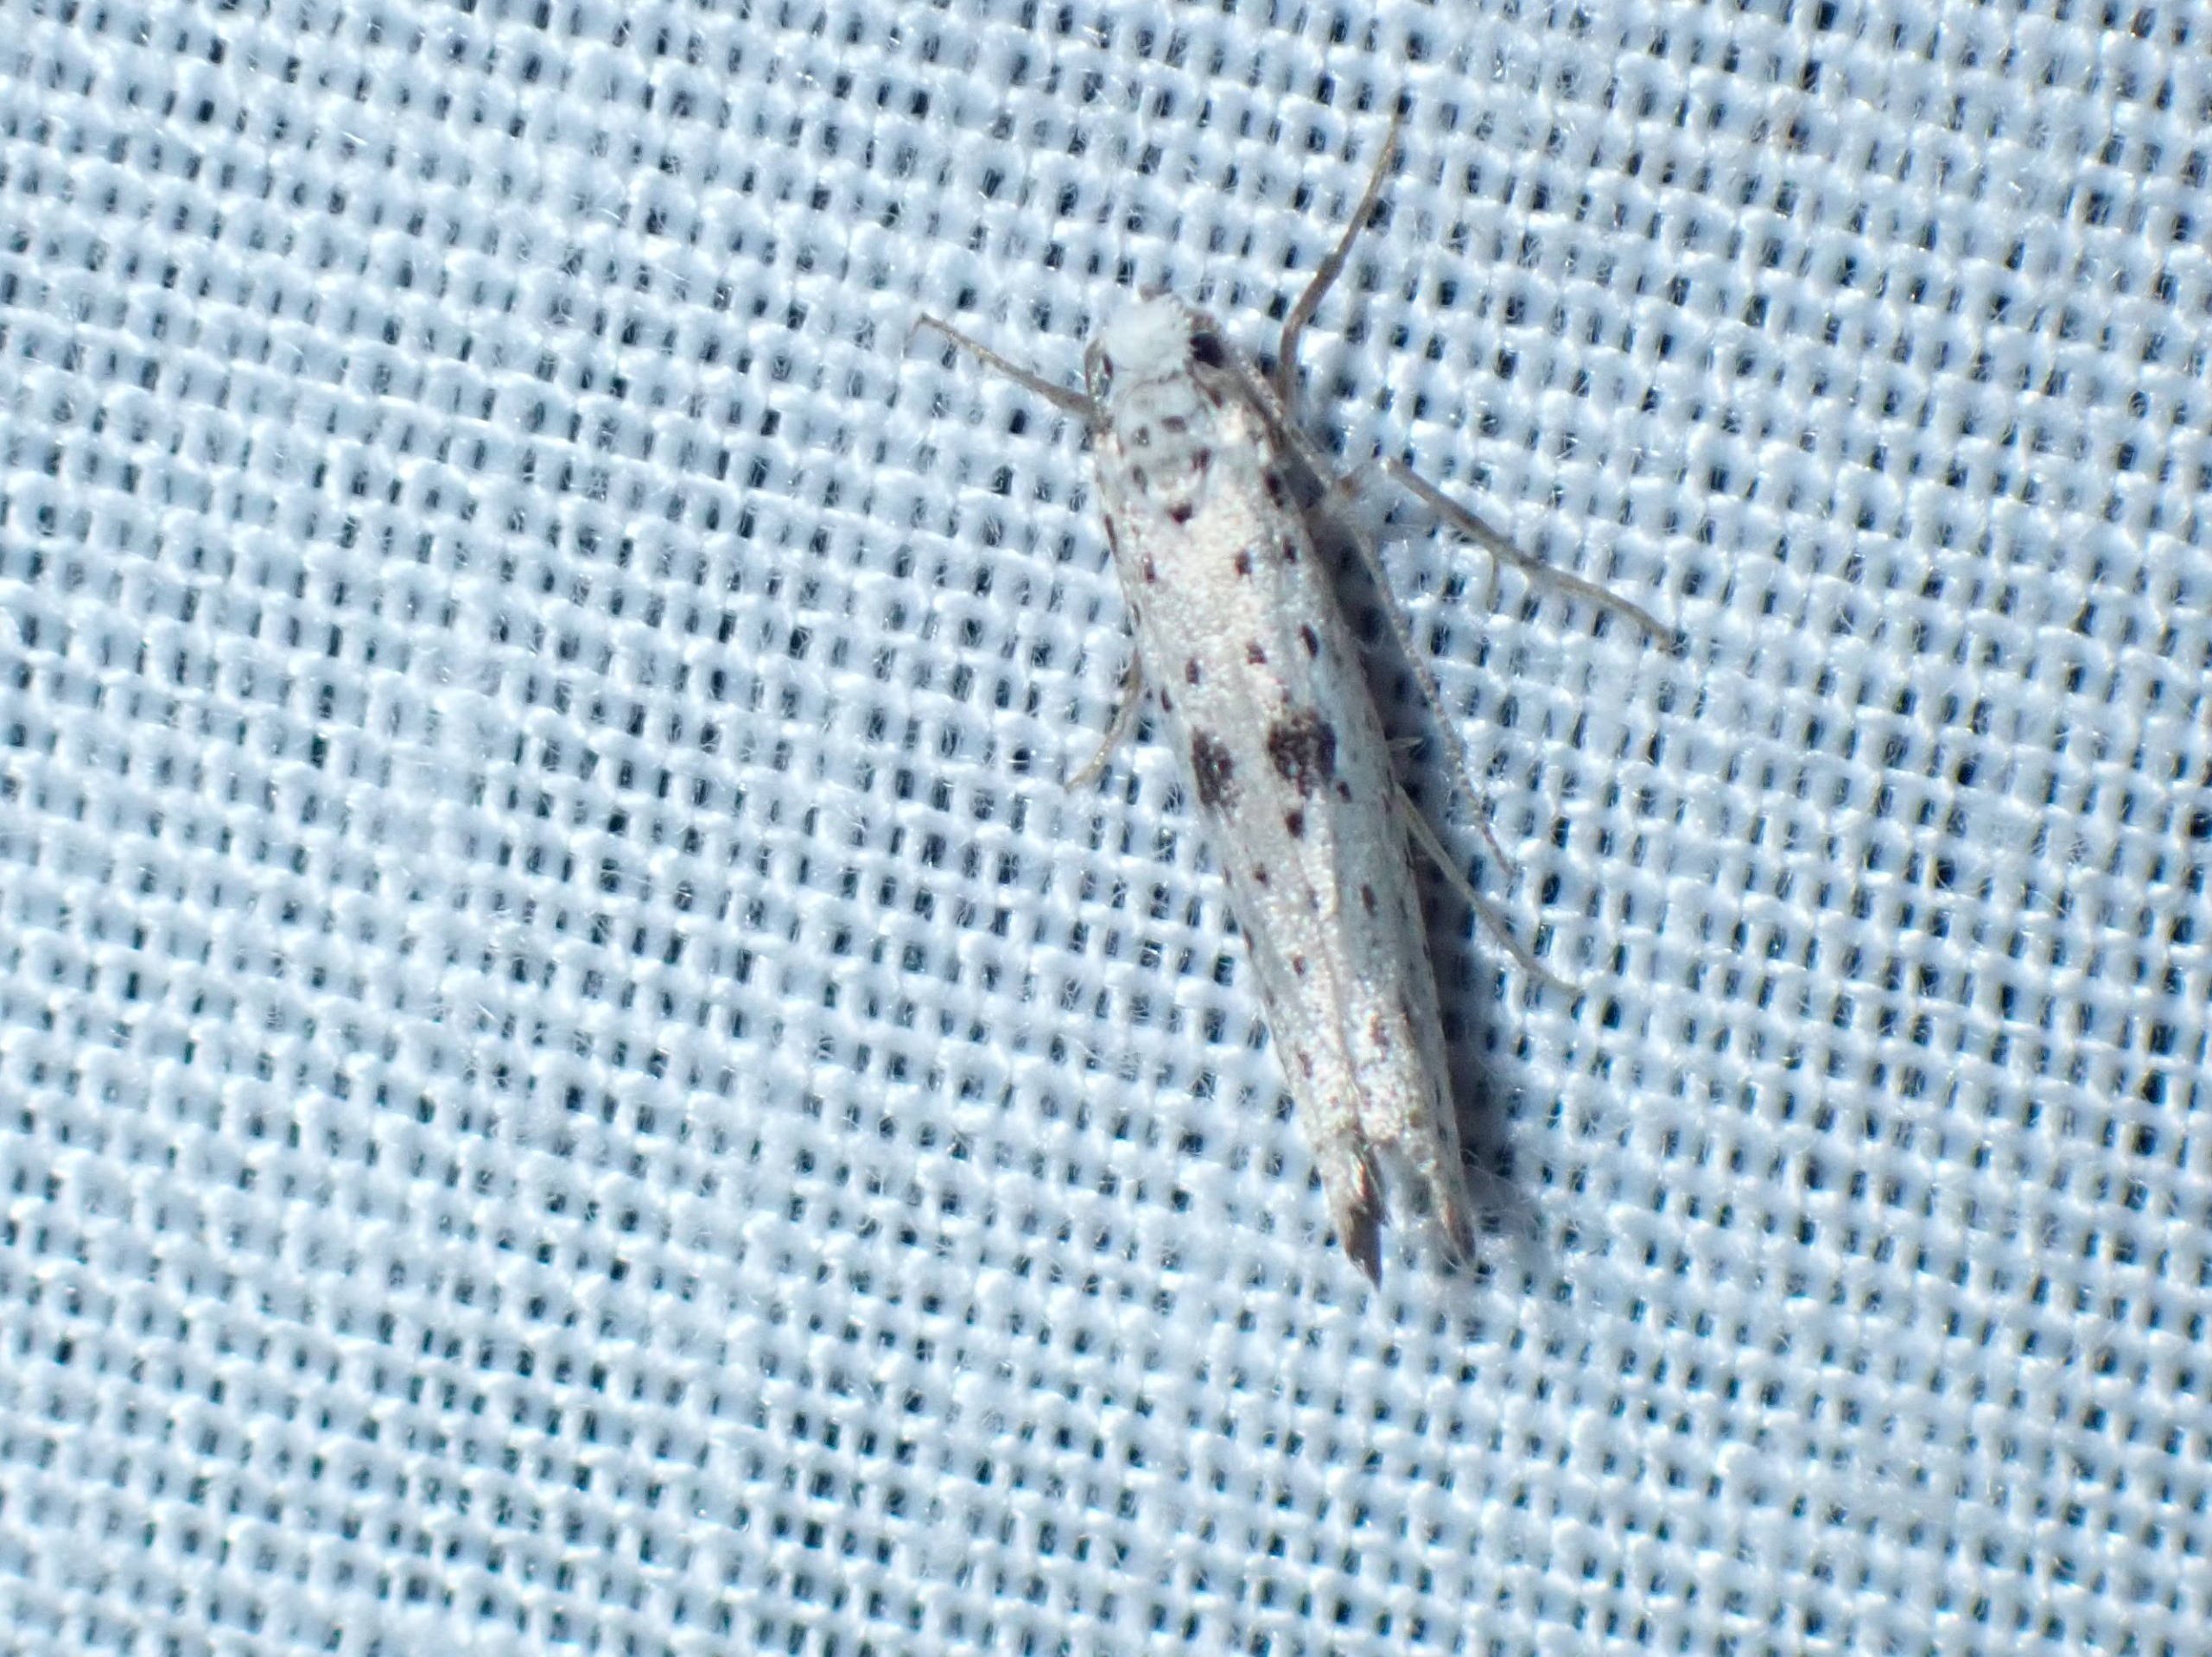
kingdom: Animalia
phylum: Arthropoda
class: Insecta
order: Lepidoptera
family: Yponomeutidae
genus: Yponomeuta
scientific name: Yponomeuta plumbella
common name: Sortspidset benvedspindemøl
